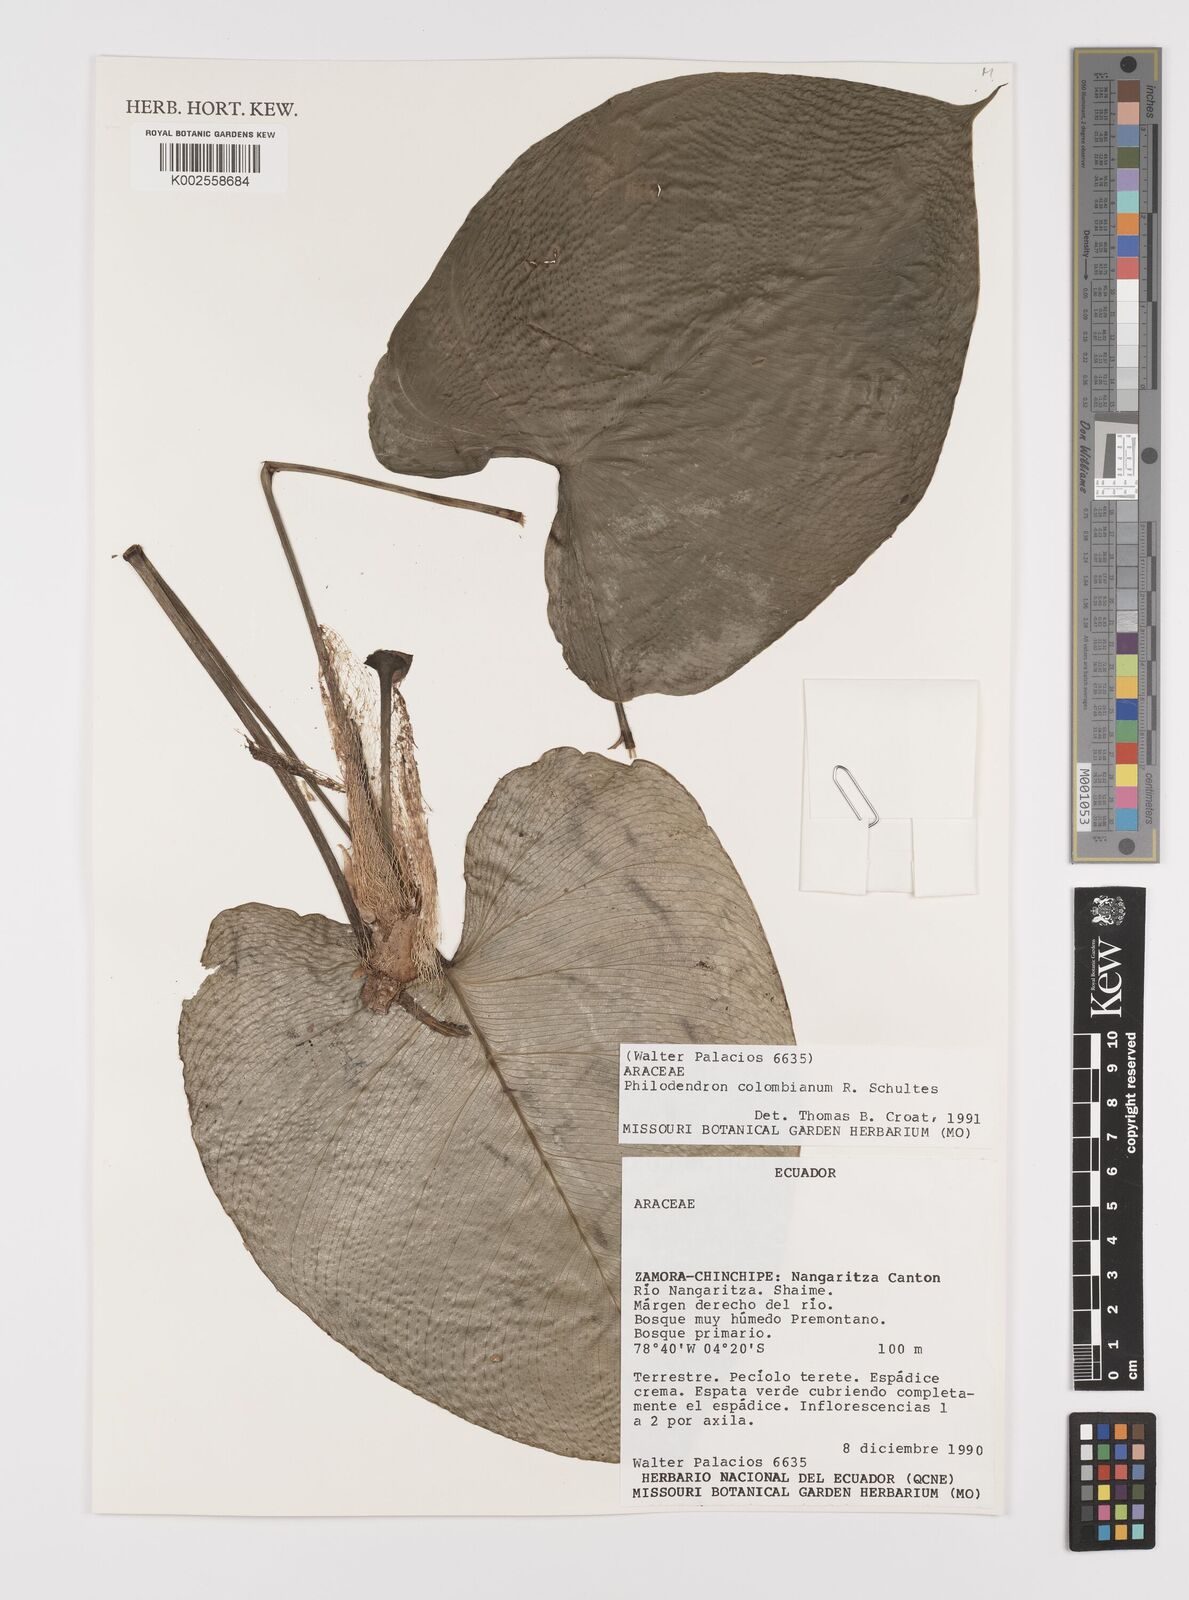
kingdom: Plantae
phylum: Tracheophyta
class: Liliopsida
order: Alismatales
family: Araceae
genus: Philodendron
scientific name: Philodendron colombianum
